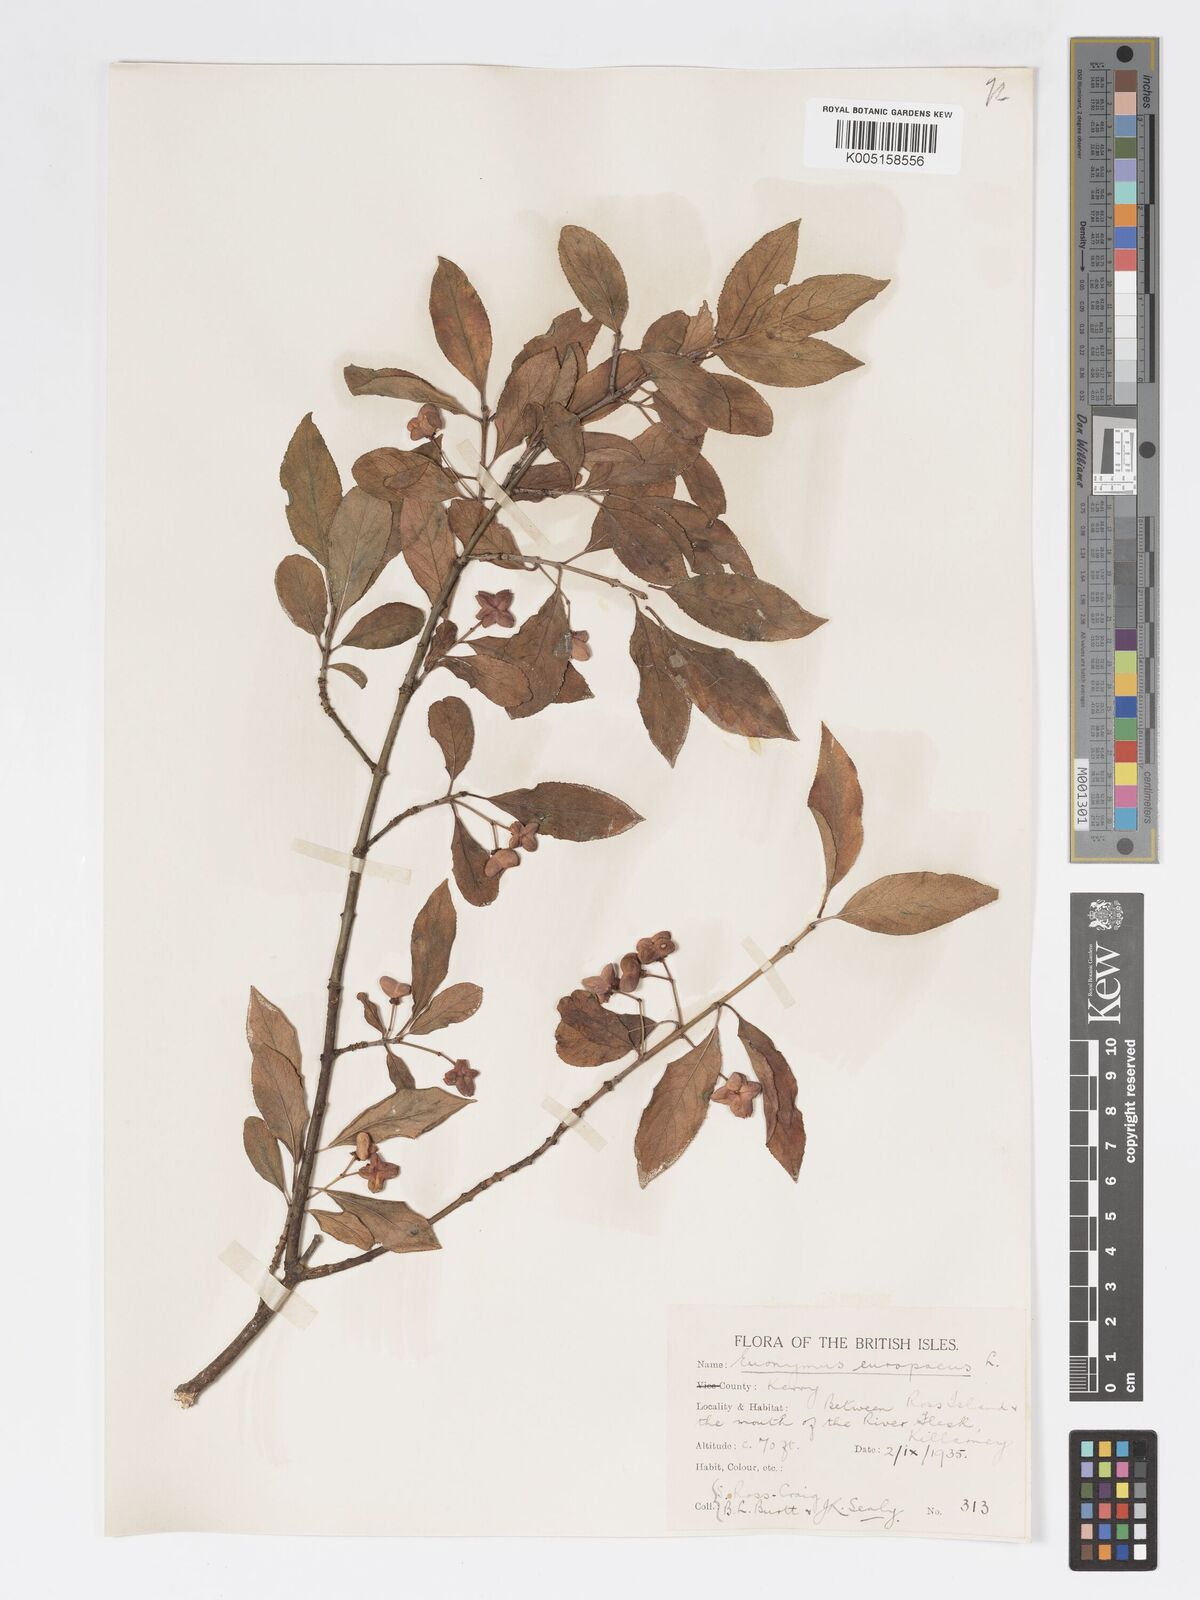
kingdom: Plantae
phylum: Tracheophyta
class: Magnoliopsida
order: Celastrales
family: Celastraceae
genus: Euonymus
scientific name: Euonymus europaeus
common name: Spindle
